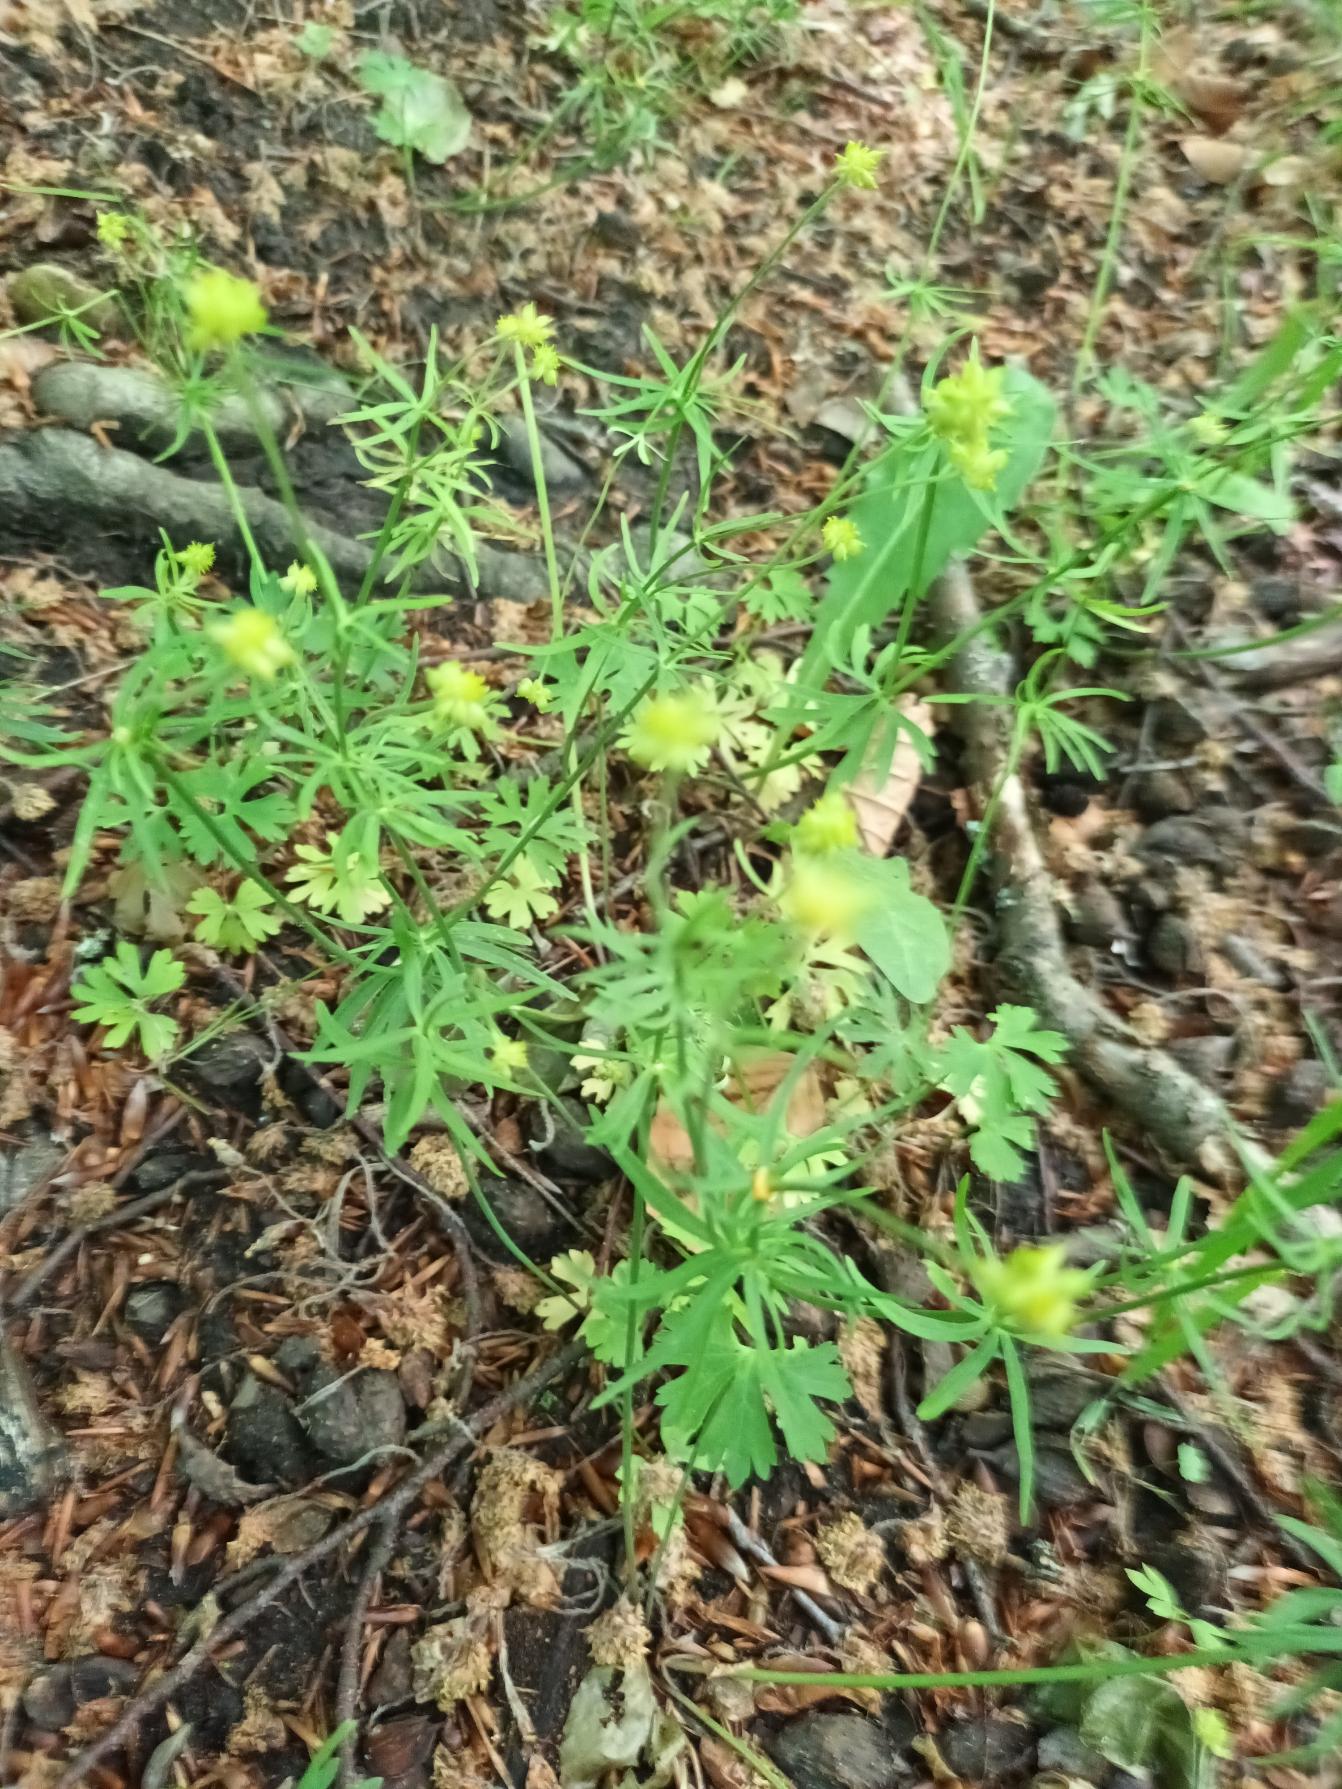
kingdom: Plantae
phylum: Tracheophyta
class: Magnoliopsida
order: Ranunculales
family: Ranunculaceae
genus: Ranunculus
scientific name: Ranunculus auricomus
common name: Nyrebladet ranunkel
